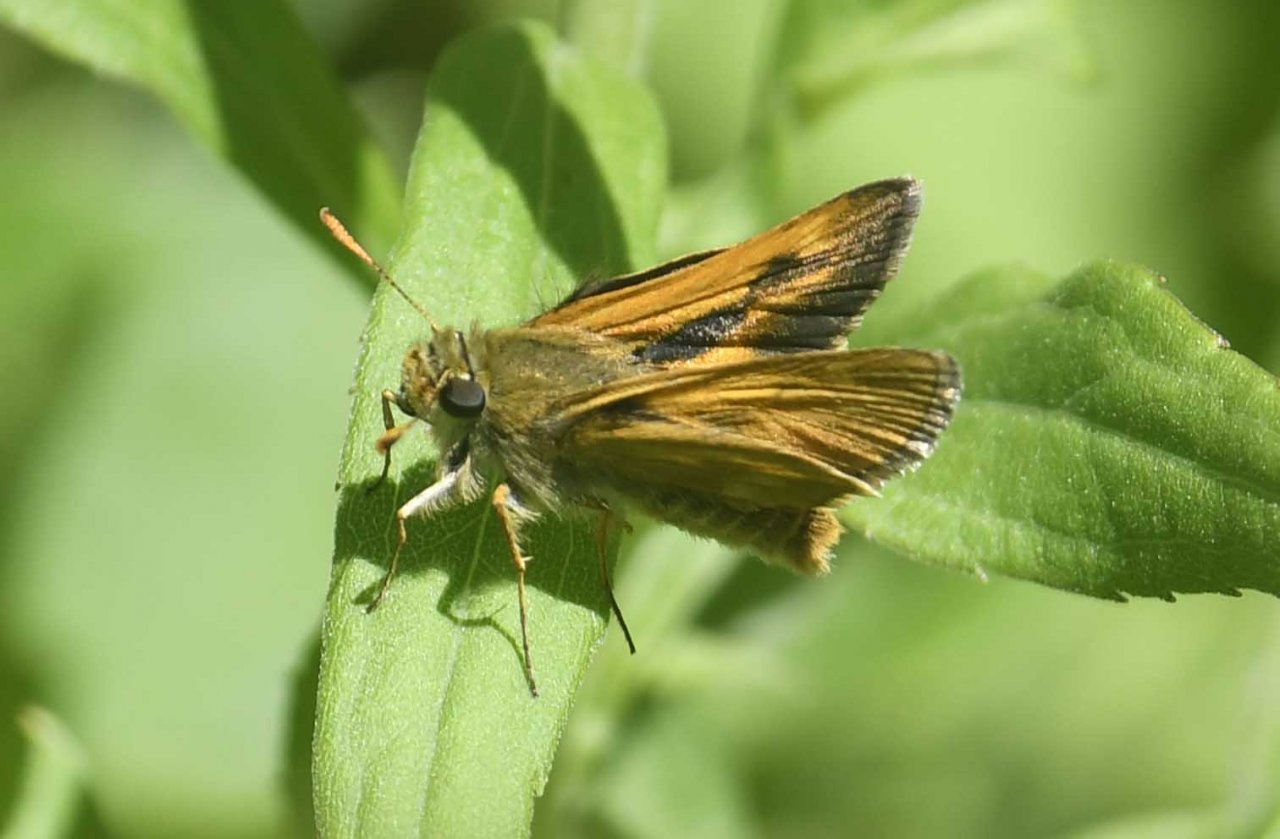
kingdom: Animalia
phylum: Arthropoda
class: Insecta
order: Lepidoptera
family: Hesperiidae
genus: Polites
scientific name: Polites
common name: Long Dash Skipper
